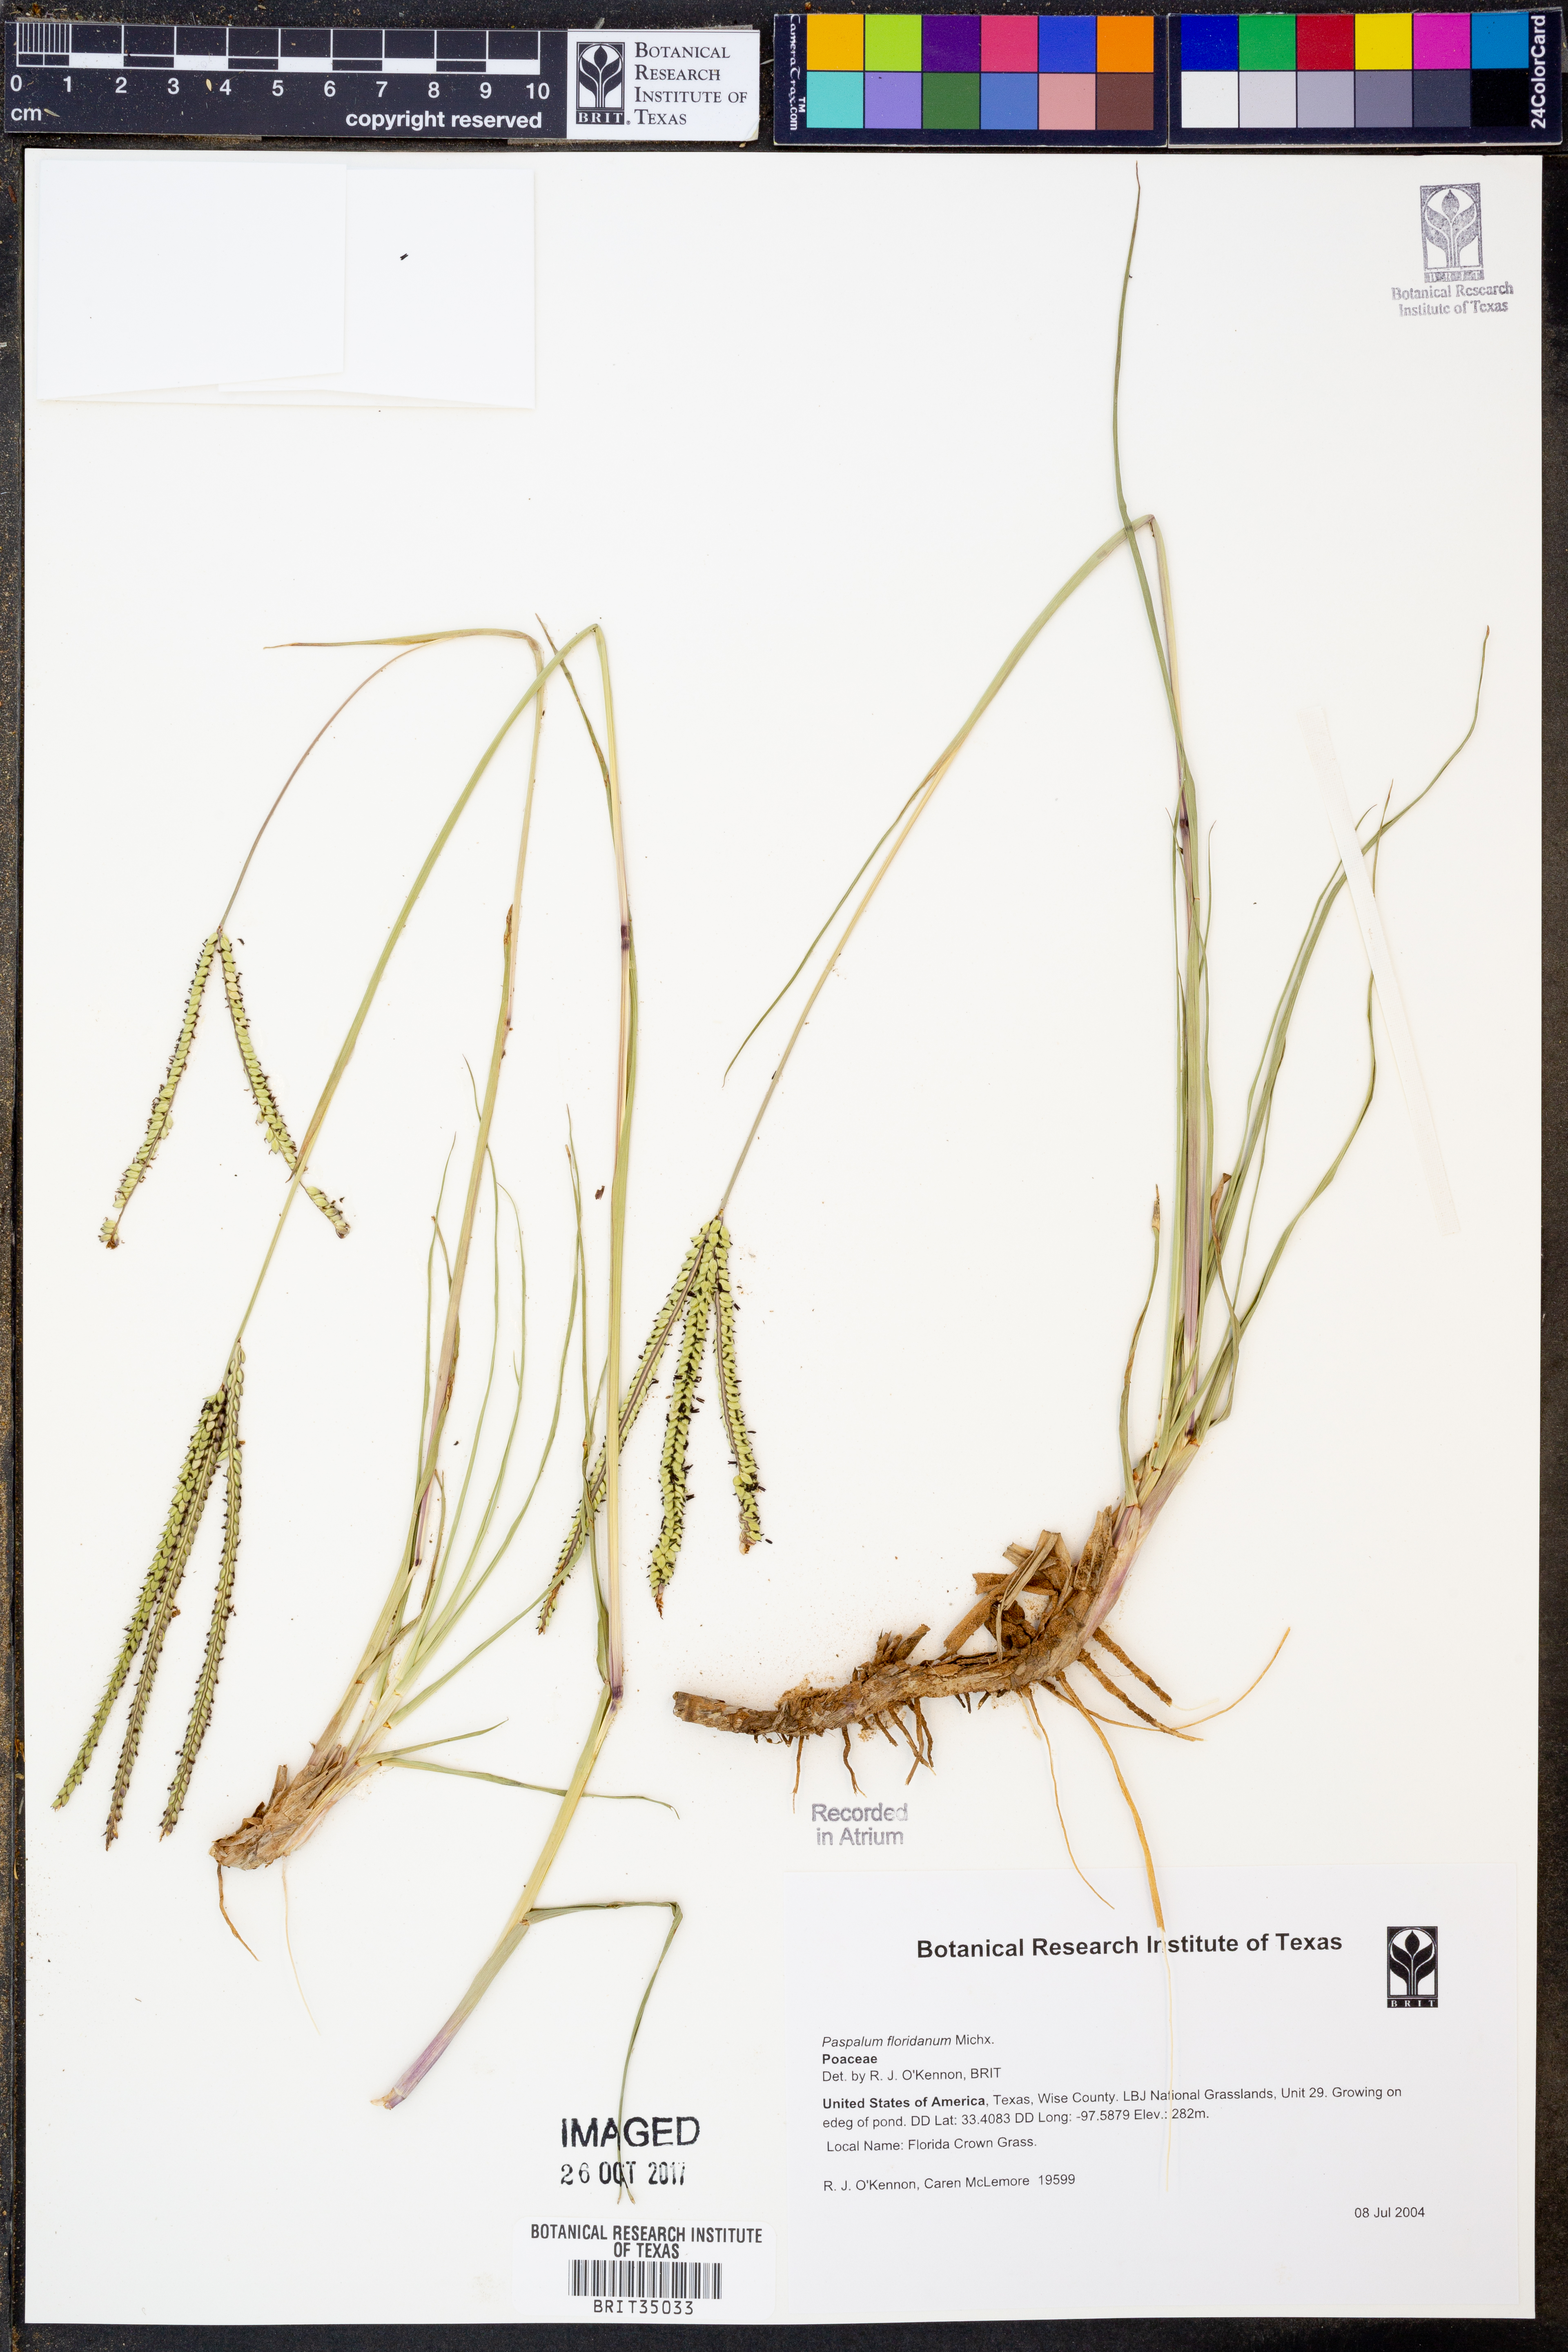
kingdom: Plantae
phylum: Tracheophyta
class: Liliopsida
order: Poales
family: Poaceae
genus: Paspalum
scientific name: Paspalum floridanum
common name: Florida paspalum
